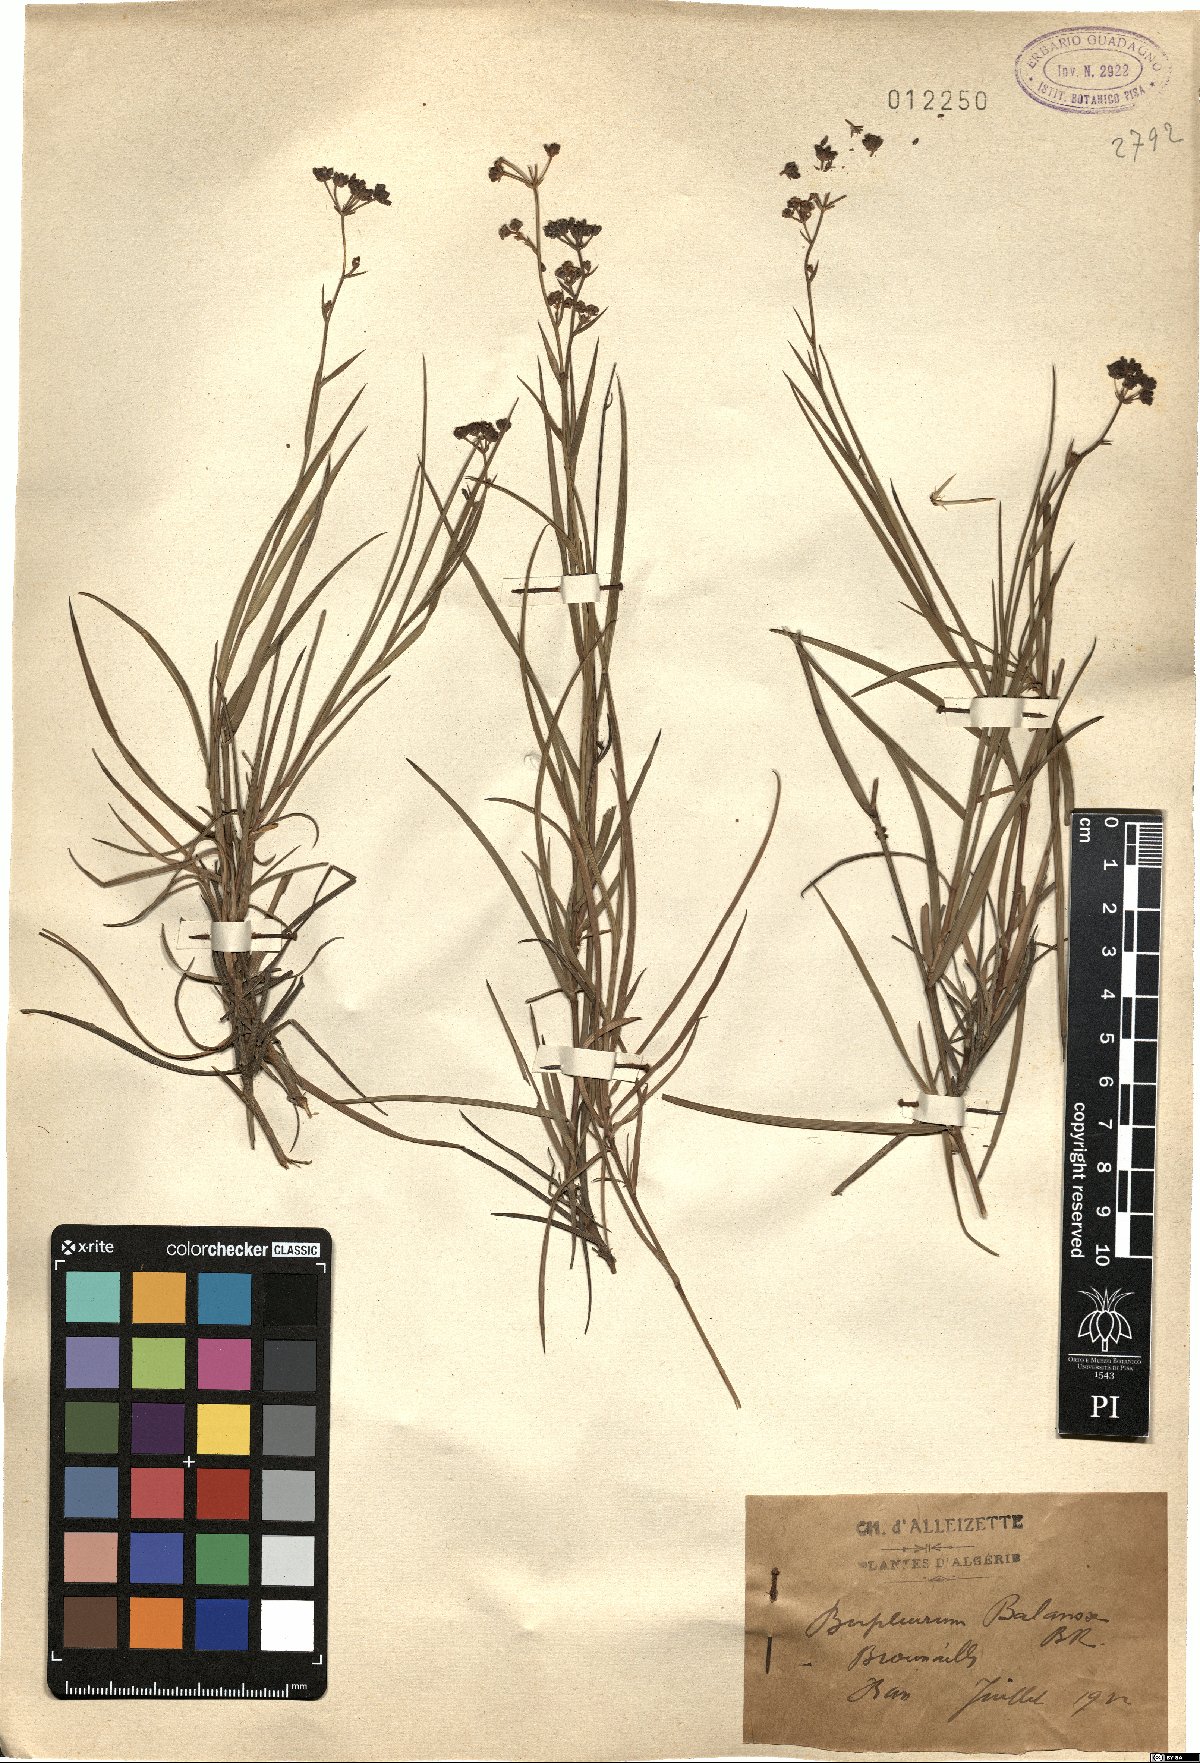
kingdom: Plantae
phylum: Tracheophyta
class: Magnoliopsida
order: Apiales
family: Apiaceae
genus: Bupleurum
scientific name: Bupleurum balansae
